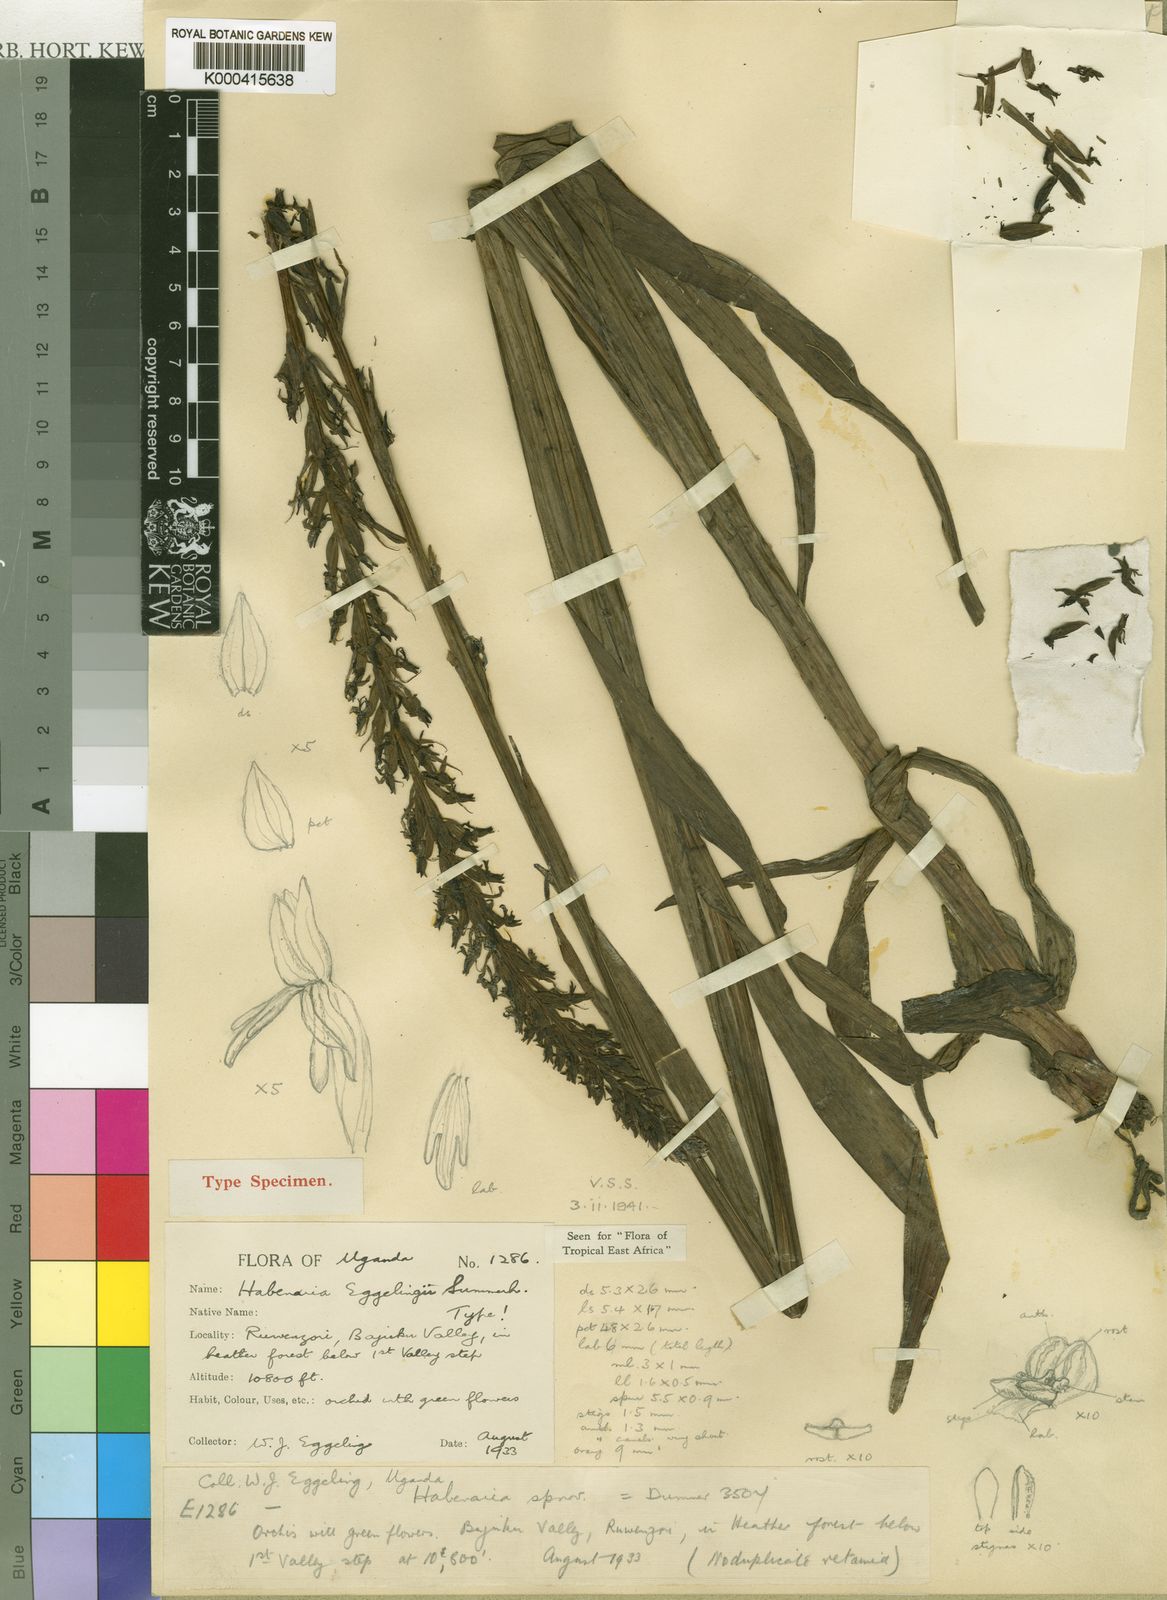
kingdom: Plantae
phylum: Tracheophyta
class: Liliopsida
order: Asparagales
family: Orchidaceae
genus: Habenaria
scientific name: Habenaria attenuata
